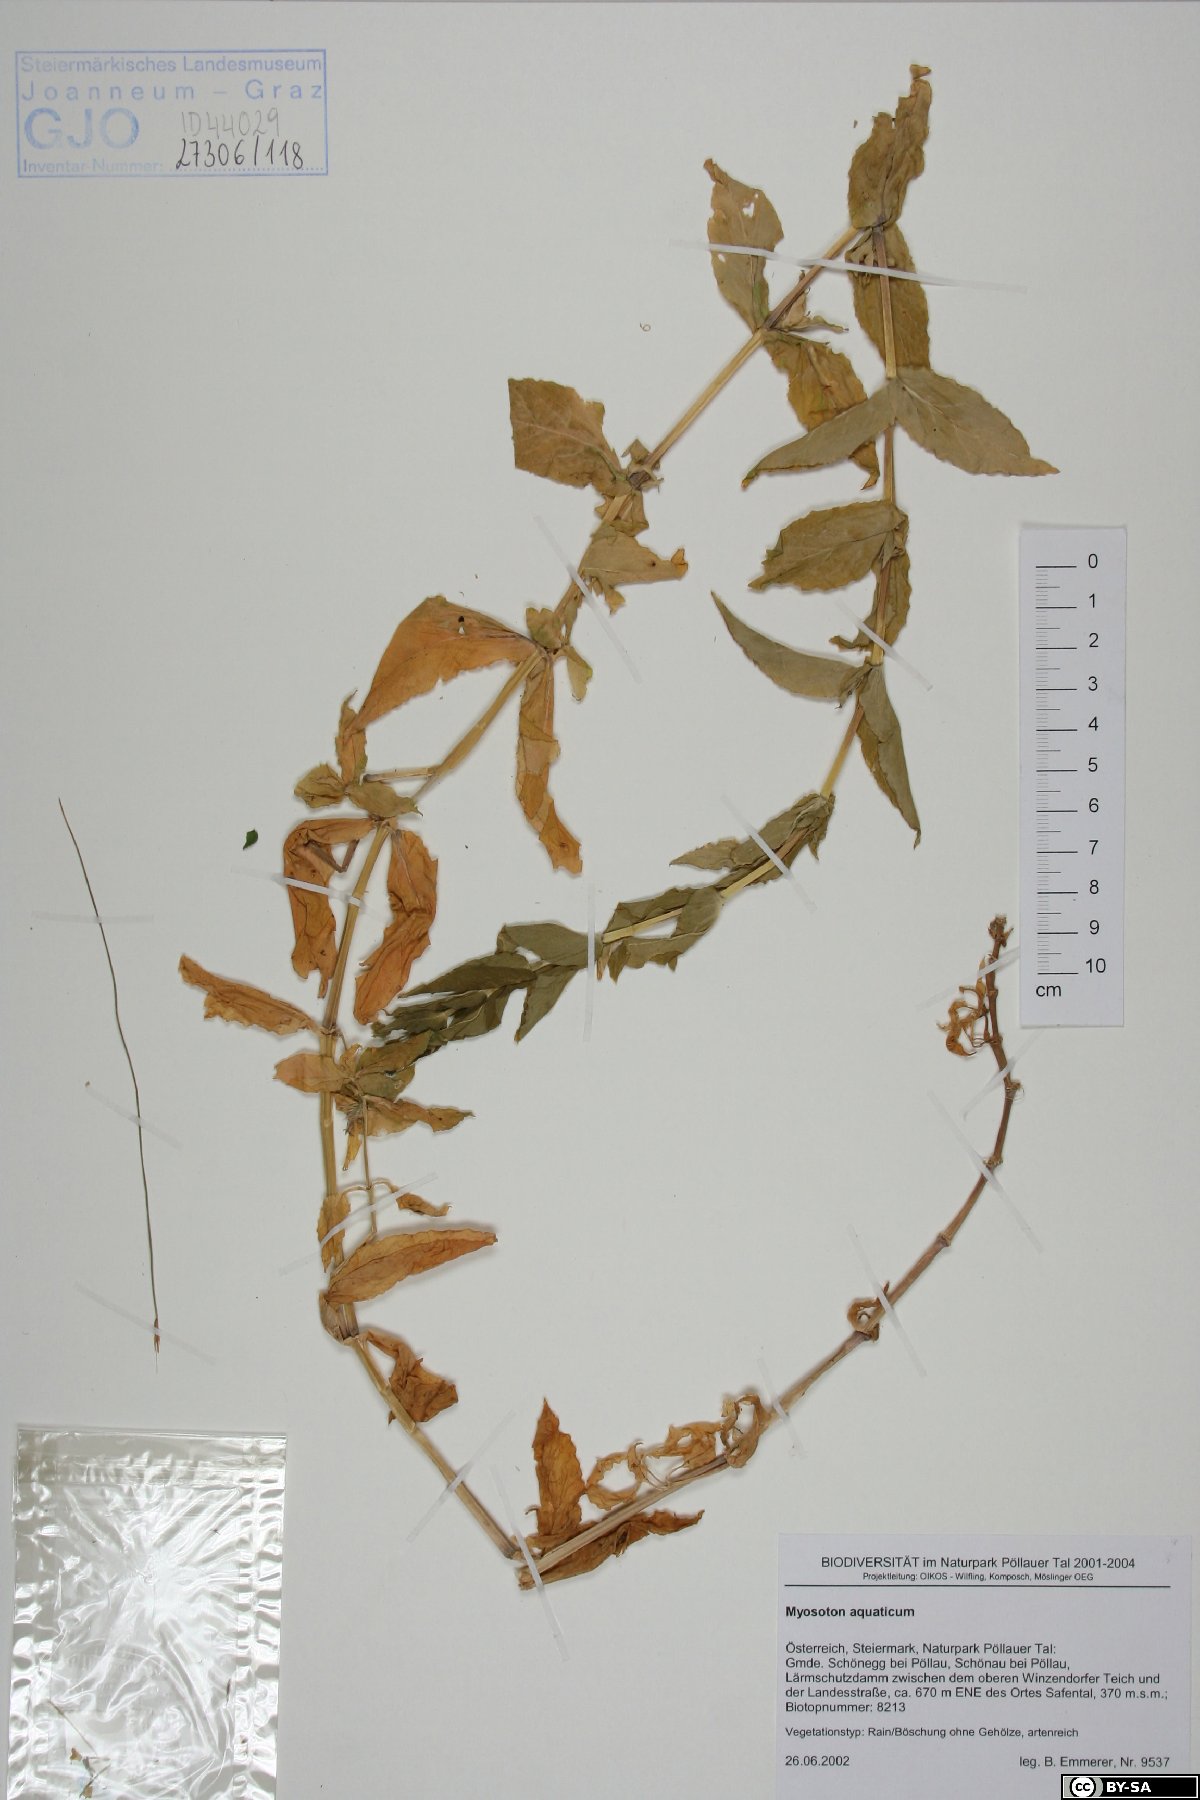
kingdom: Plantae
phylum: Tracheophyta
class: Magnoliopsida
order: Caryophyllales
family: Caryophyllaceae
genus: Stellaria
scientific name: Stellaria aquatica
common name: Water chickweed
